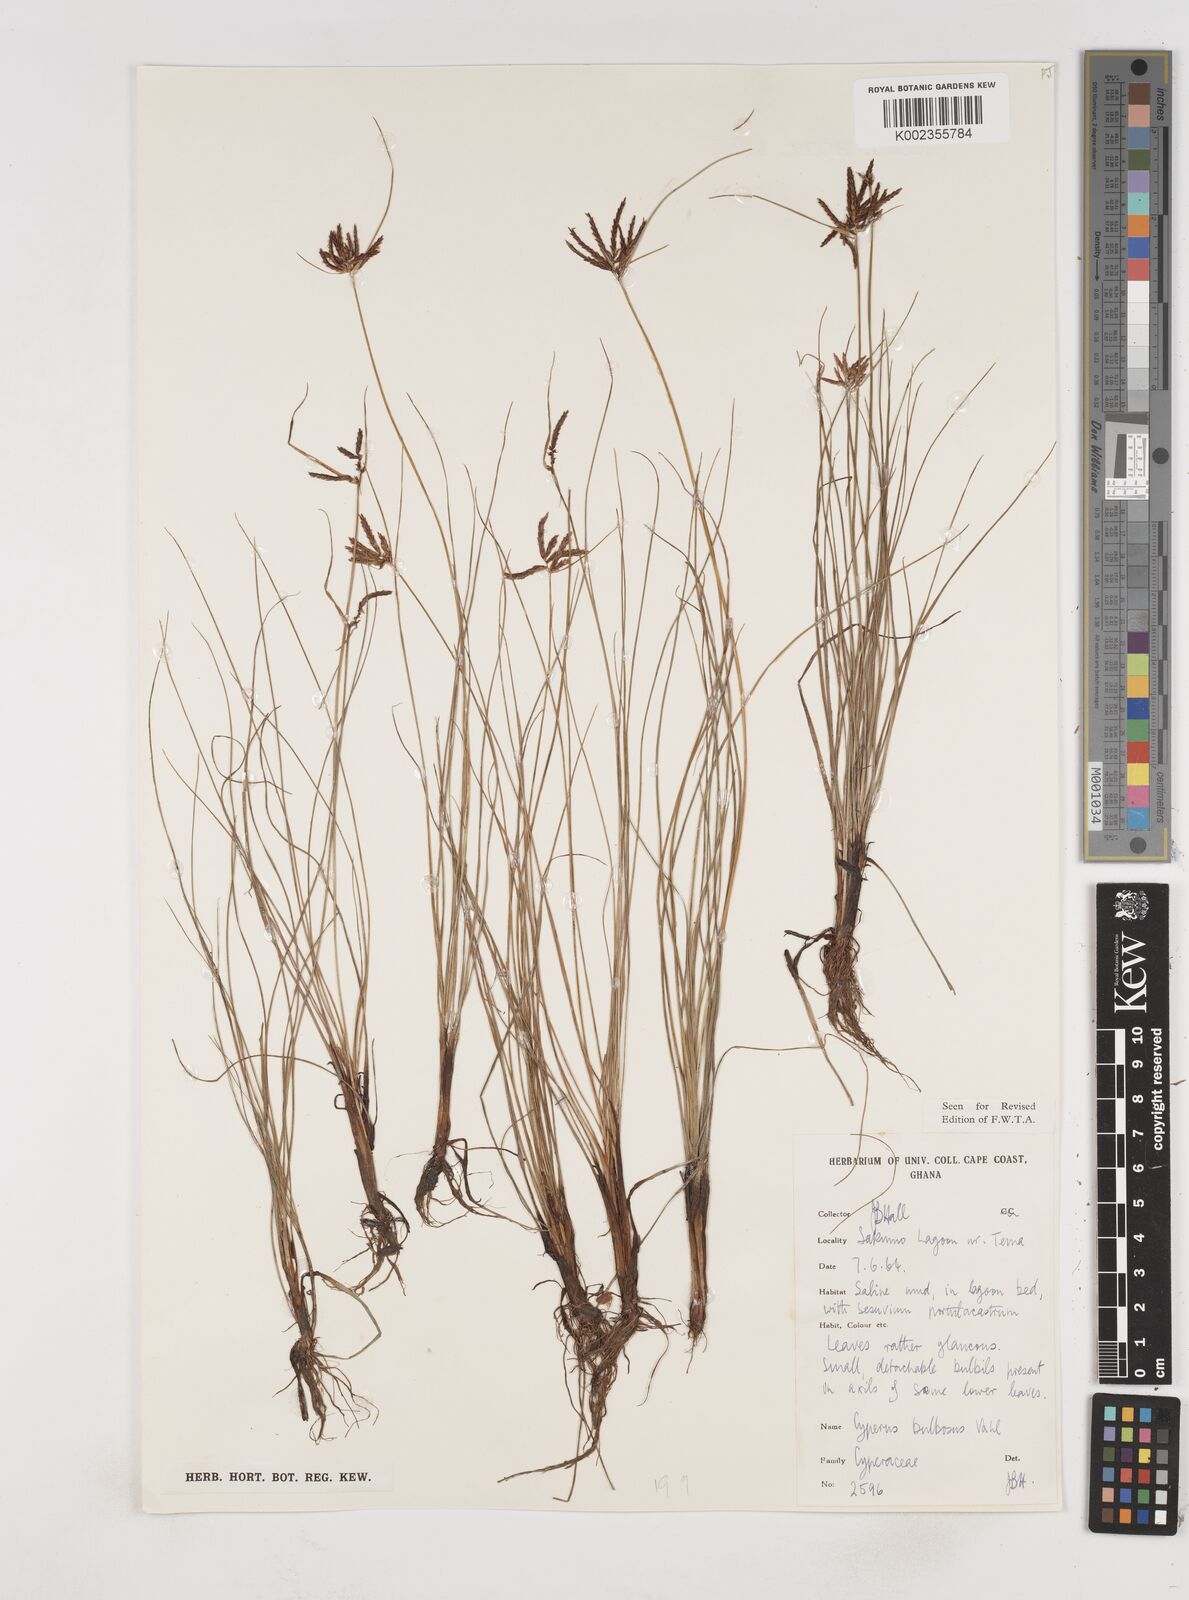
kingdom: Plantae
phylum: Tracheophyta
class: Liliopsida
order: Poales
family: Cyperaceae
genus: Cyperus
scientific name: Cyperus bulbosus
